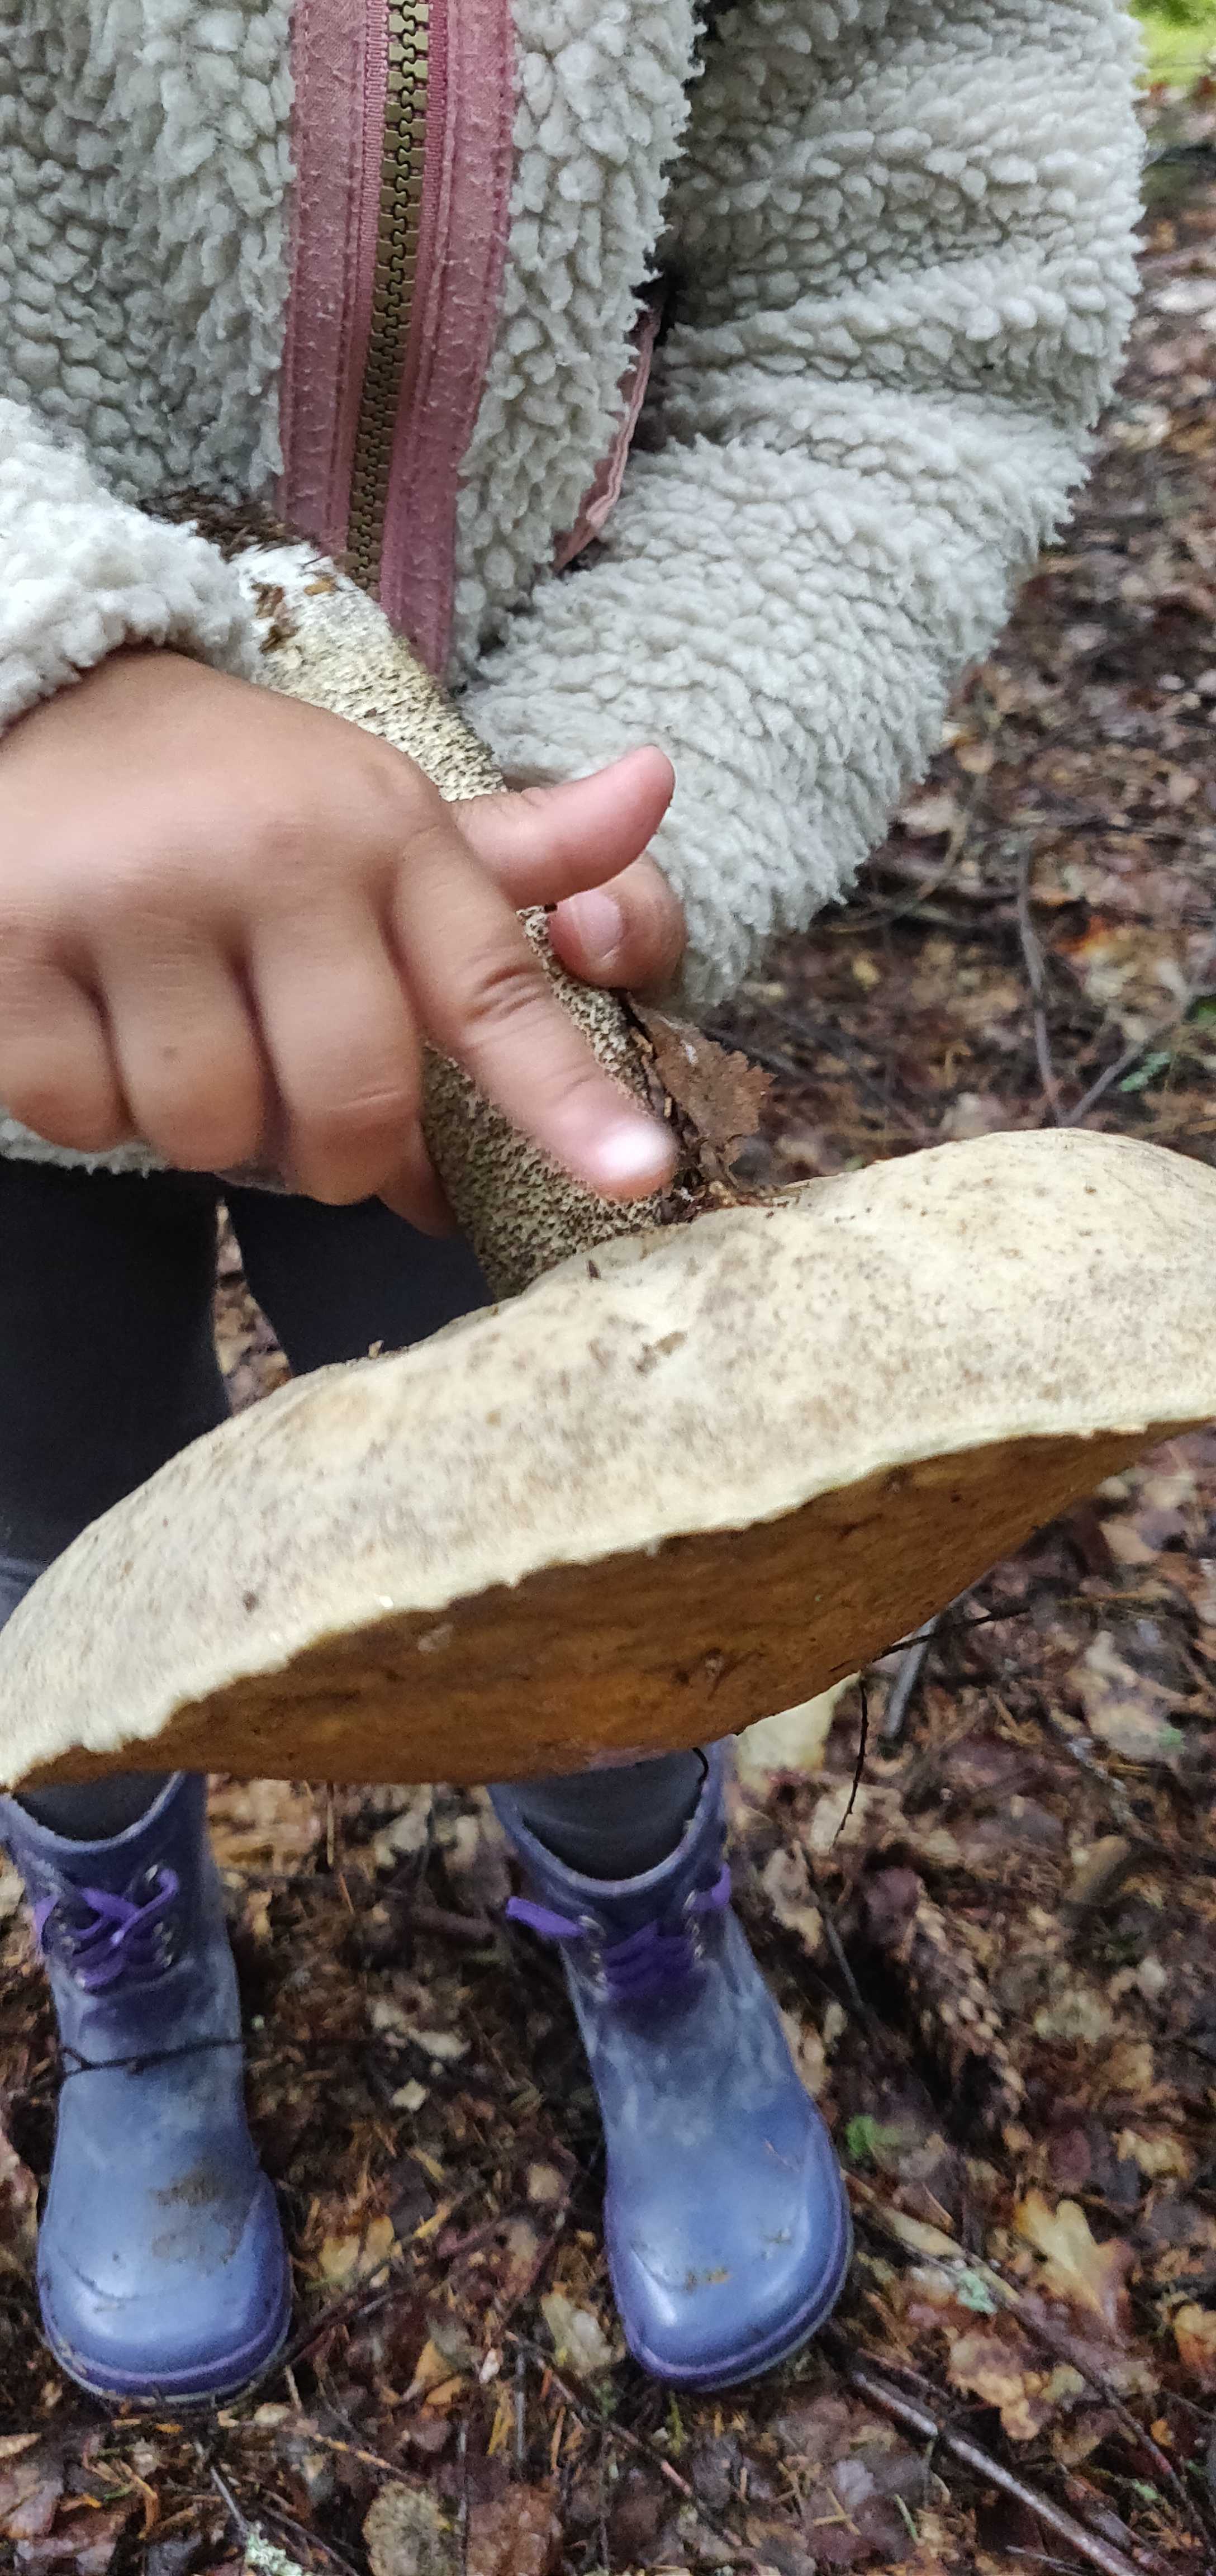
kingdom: Fungi
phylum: Basidiomycota
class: Agaricomycetes
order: Boletales
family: Boletaceae
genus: Leccinum
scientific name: Leccinum
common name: skælrørhat
